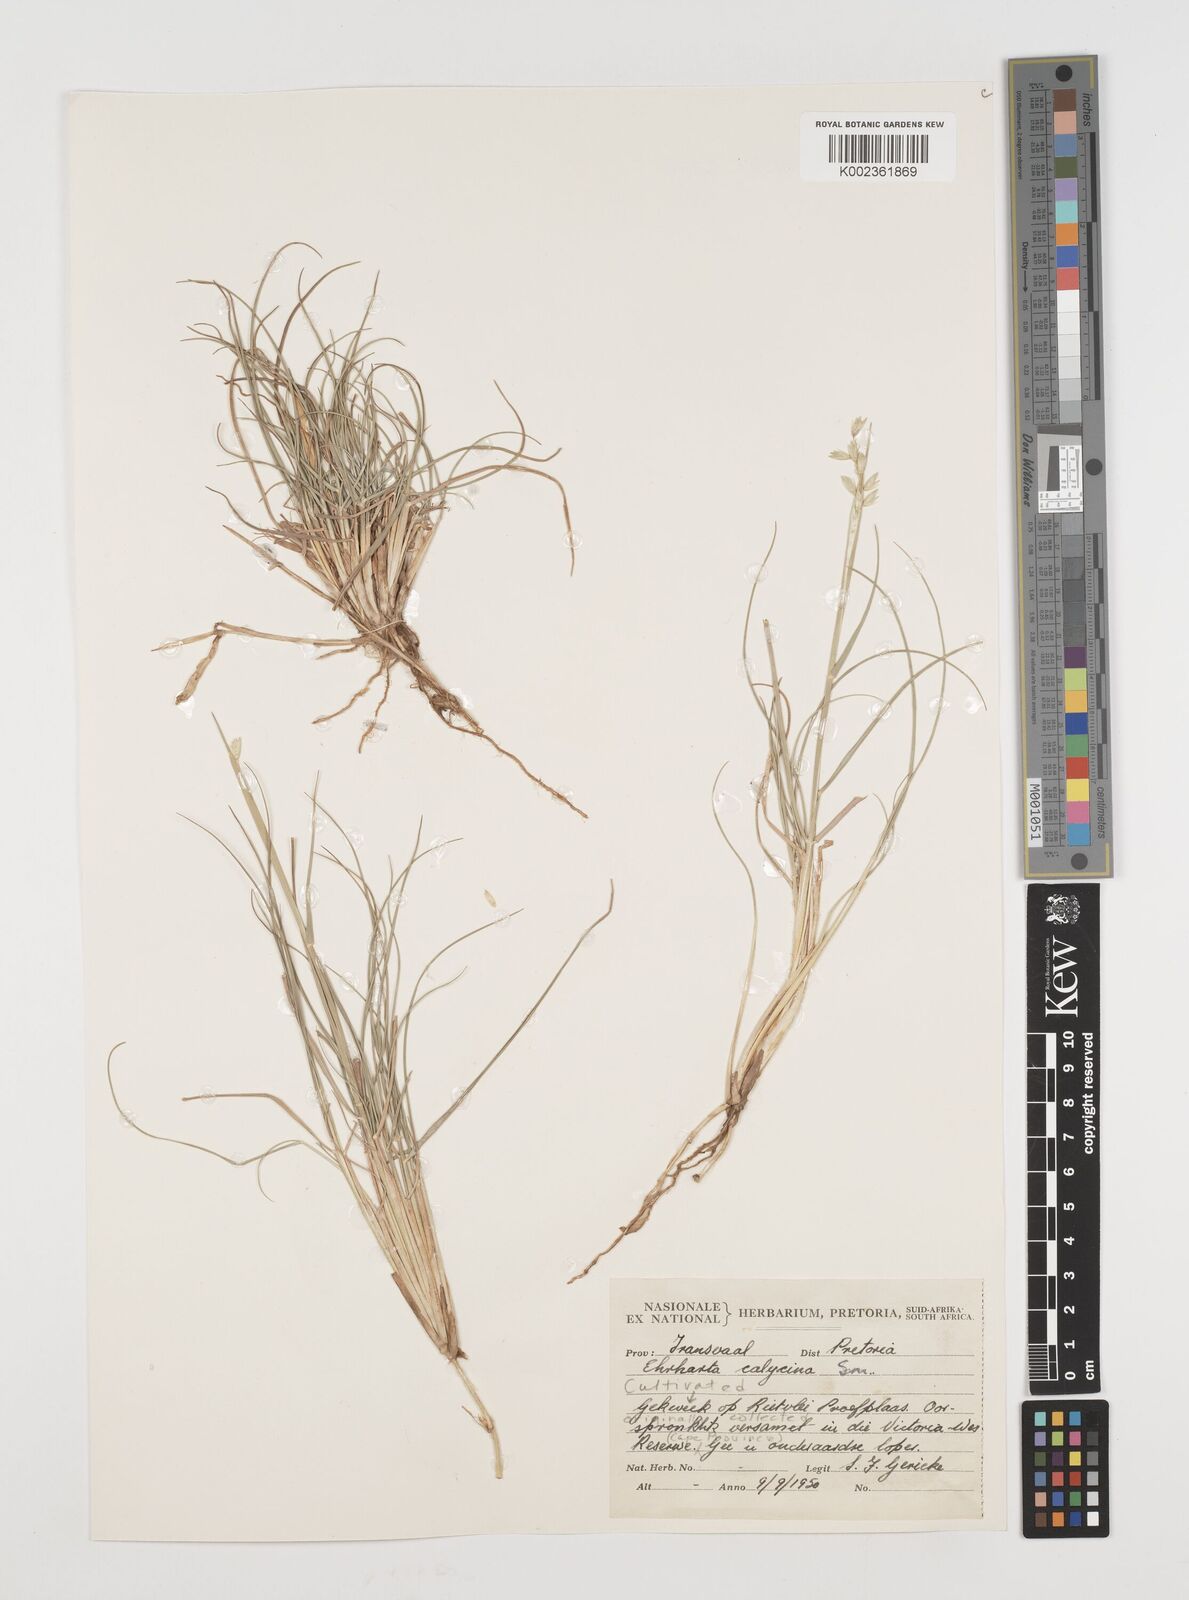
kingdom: Plantae
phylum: Tracheophyta
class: Liliopsida
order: Poales
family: Poaceae
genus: Ehrharta
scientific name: Ehrharta calycina
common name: Perennial veldtgrass
